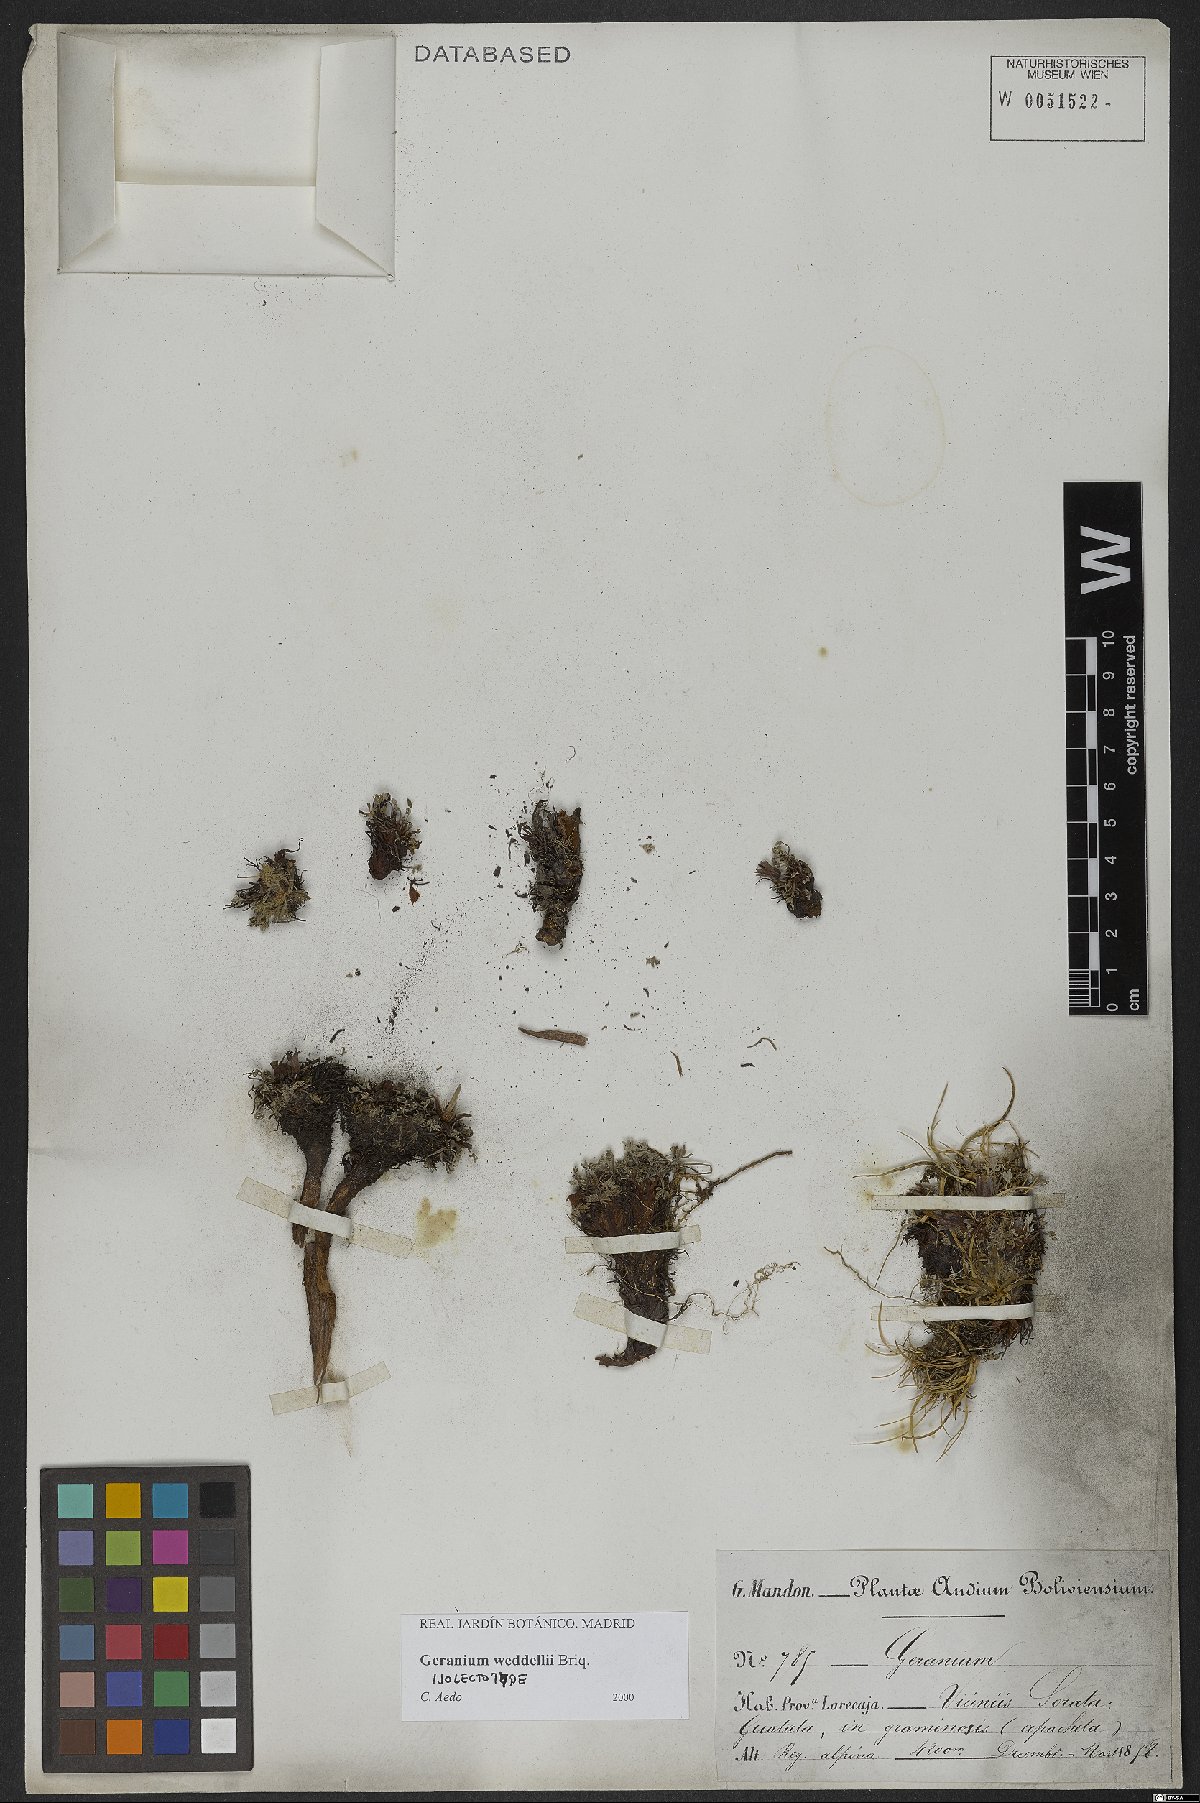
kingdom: Plantae
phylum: Tracheophyta
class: Magnoliopsida
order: Geraniales
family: Geraniaceae
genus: Geranium
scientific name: Geranium weddellii
